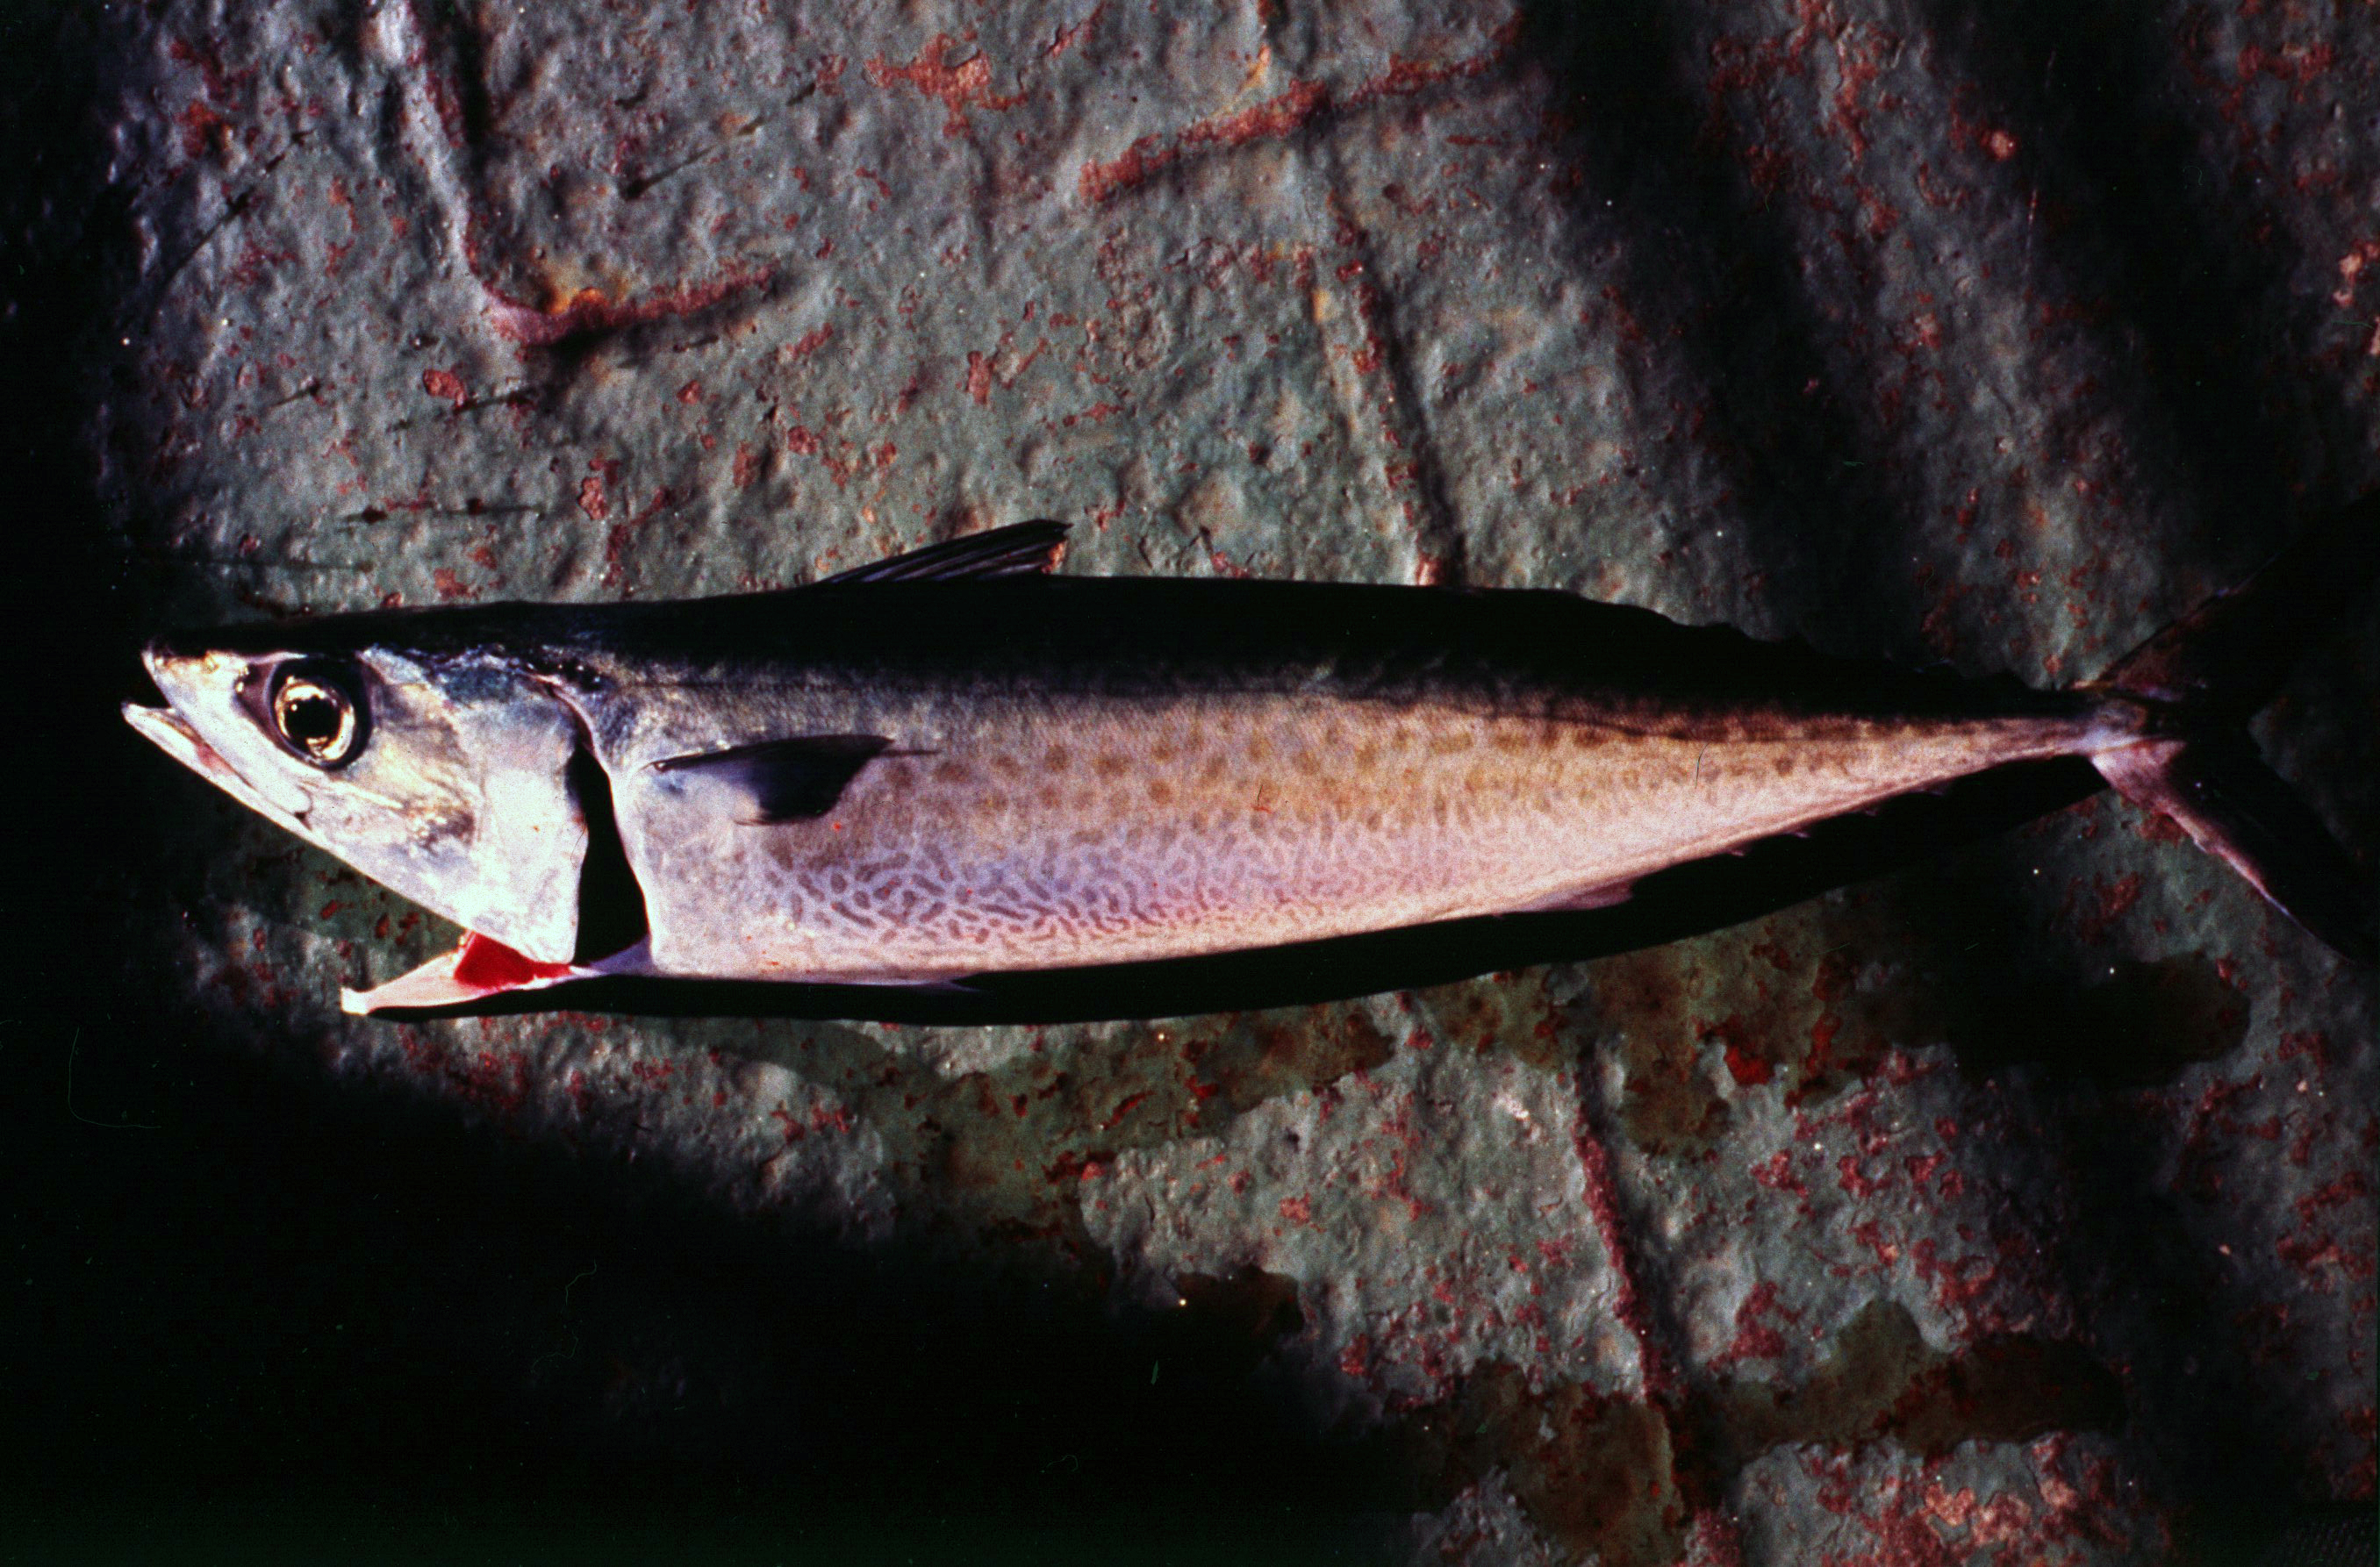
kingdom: Animalia
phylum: Chordata
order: Perciformes
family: Scombridae
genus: Scomber
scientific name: Scomber japonicus
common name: Chub mackerel
